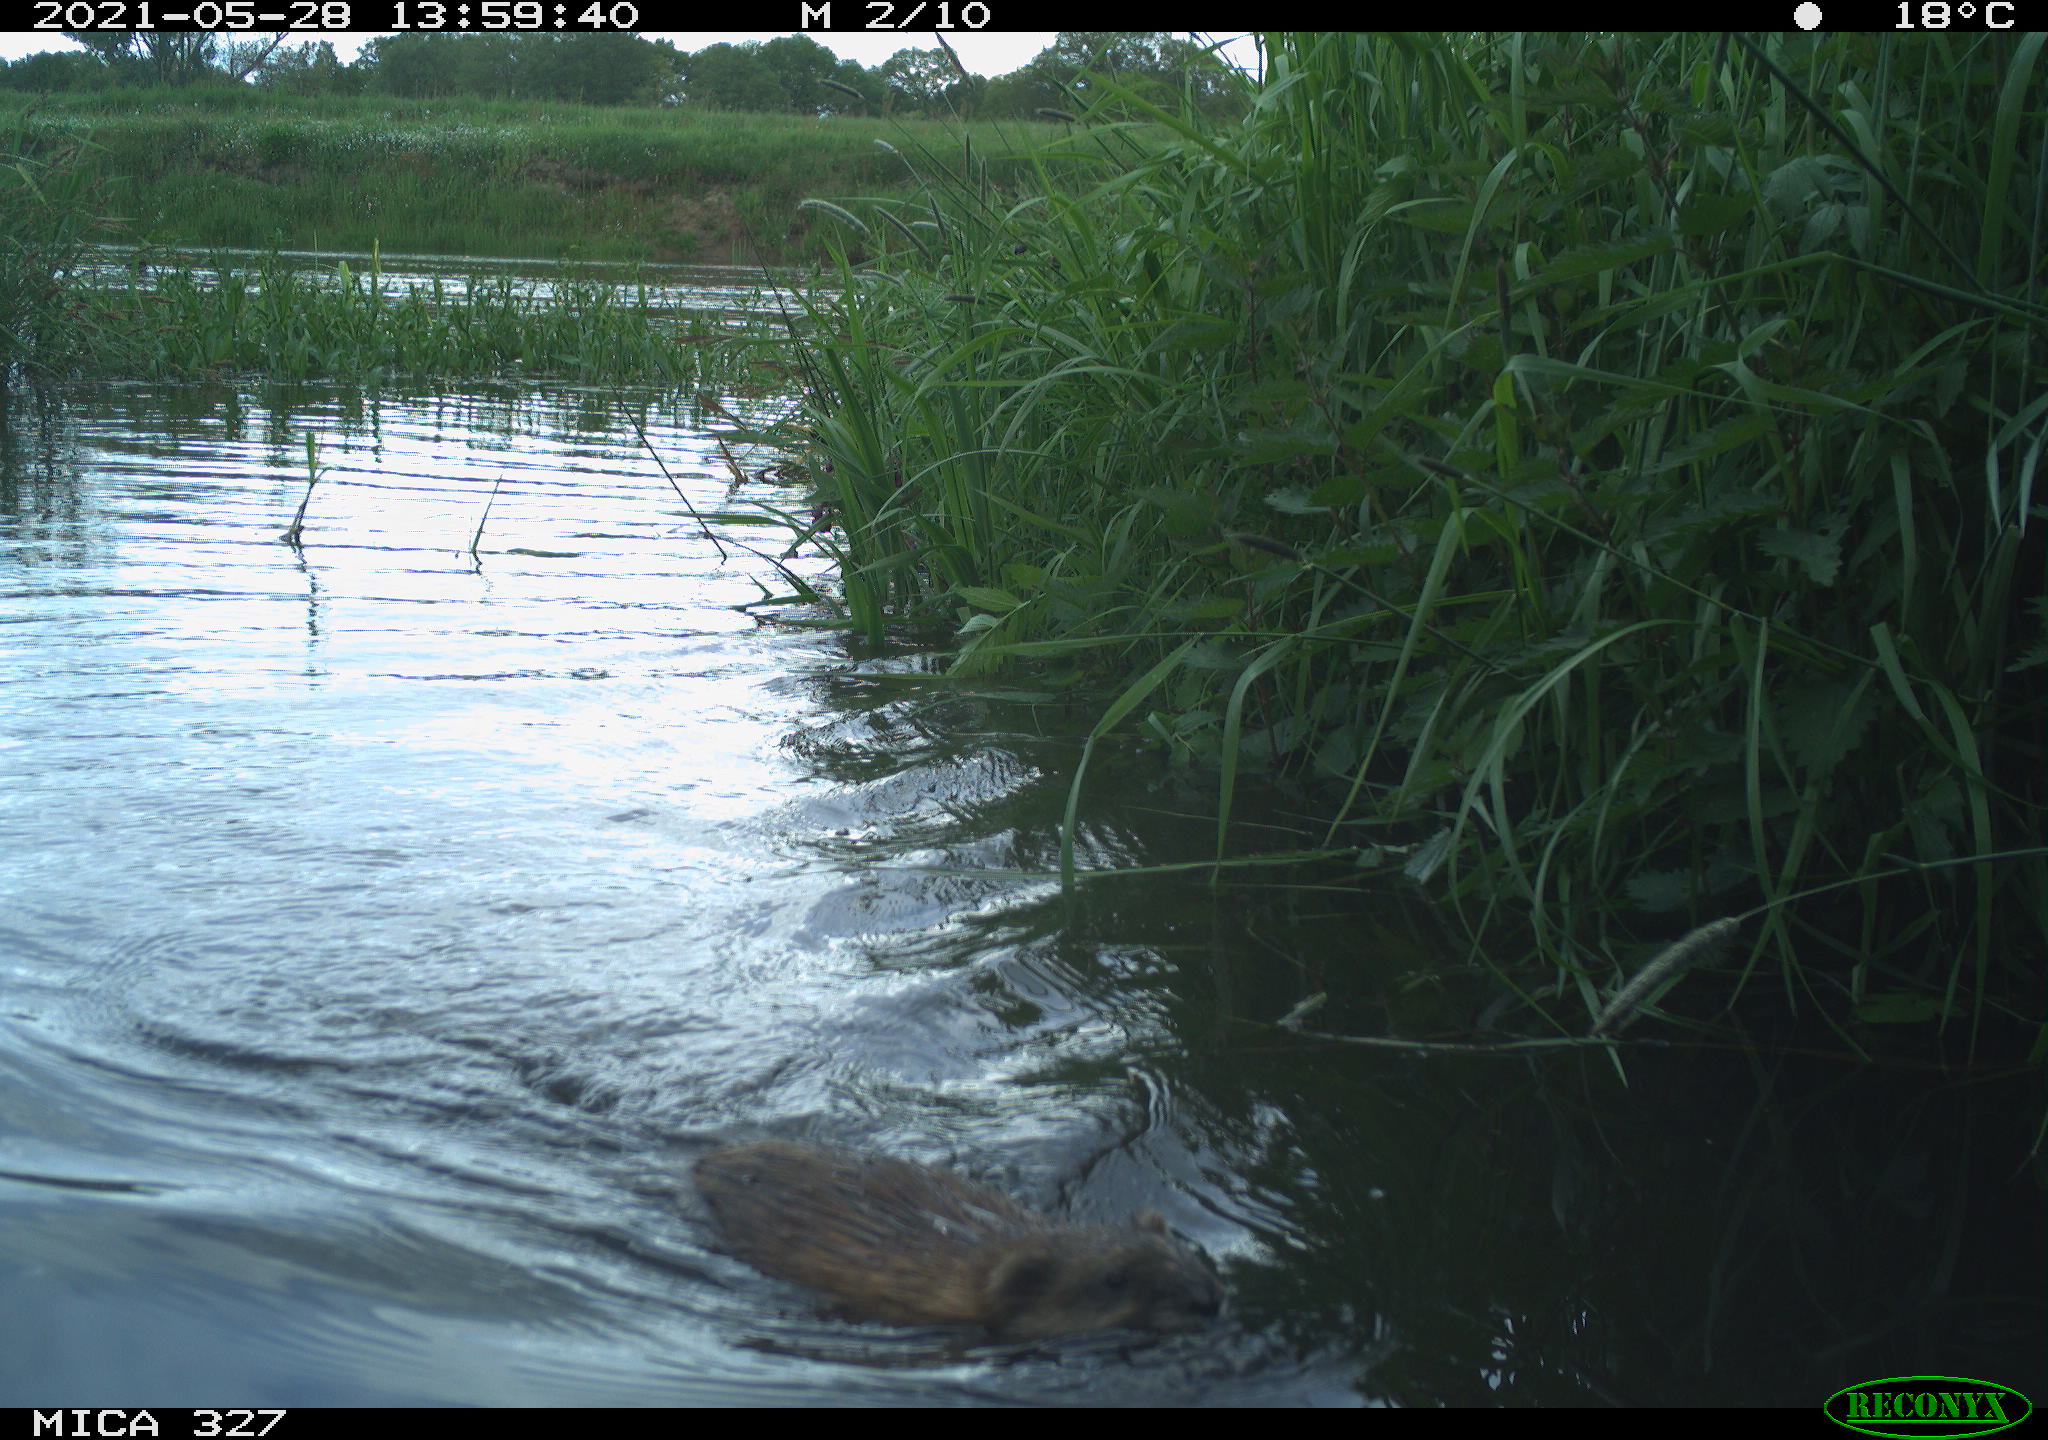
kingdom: Animalia
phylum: Chordata
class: Mammalia
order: Rodentia
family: Cricetidae
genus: Ondatra
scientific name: Ondatra zibethicus
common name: Muskrat
